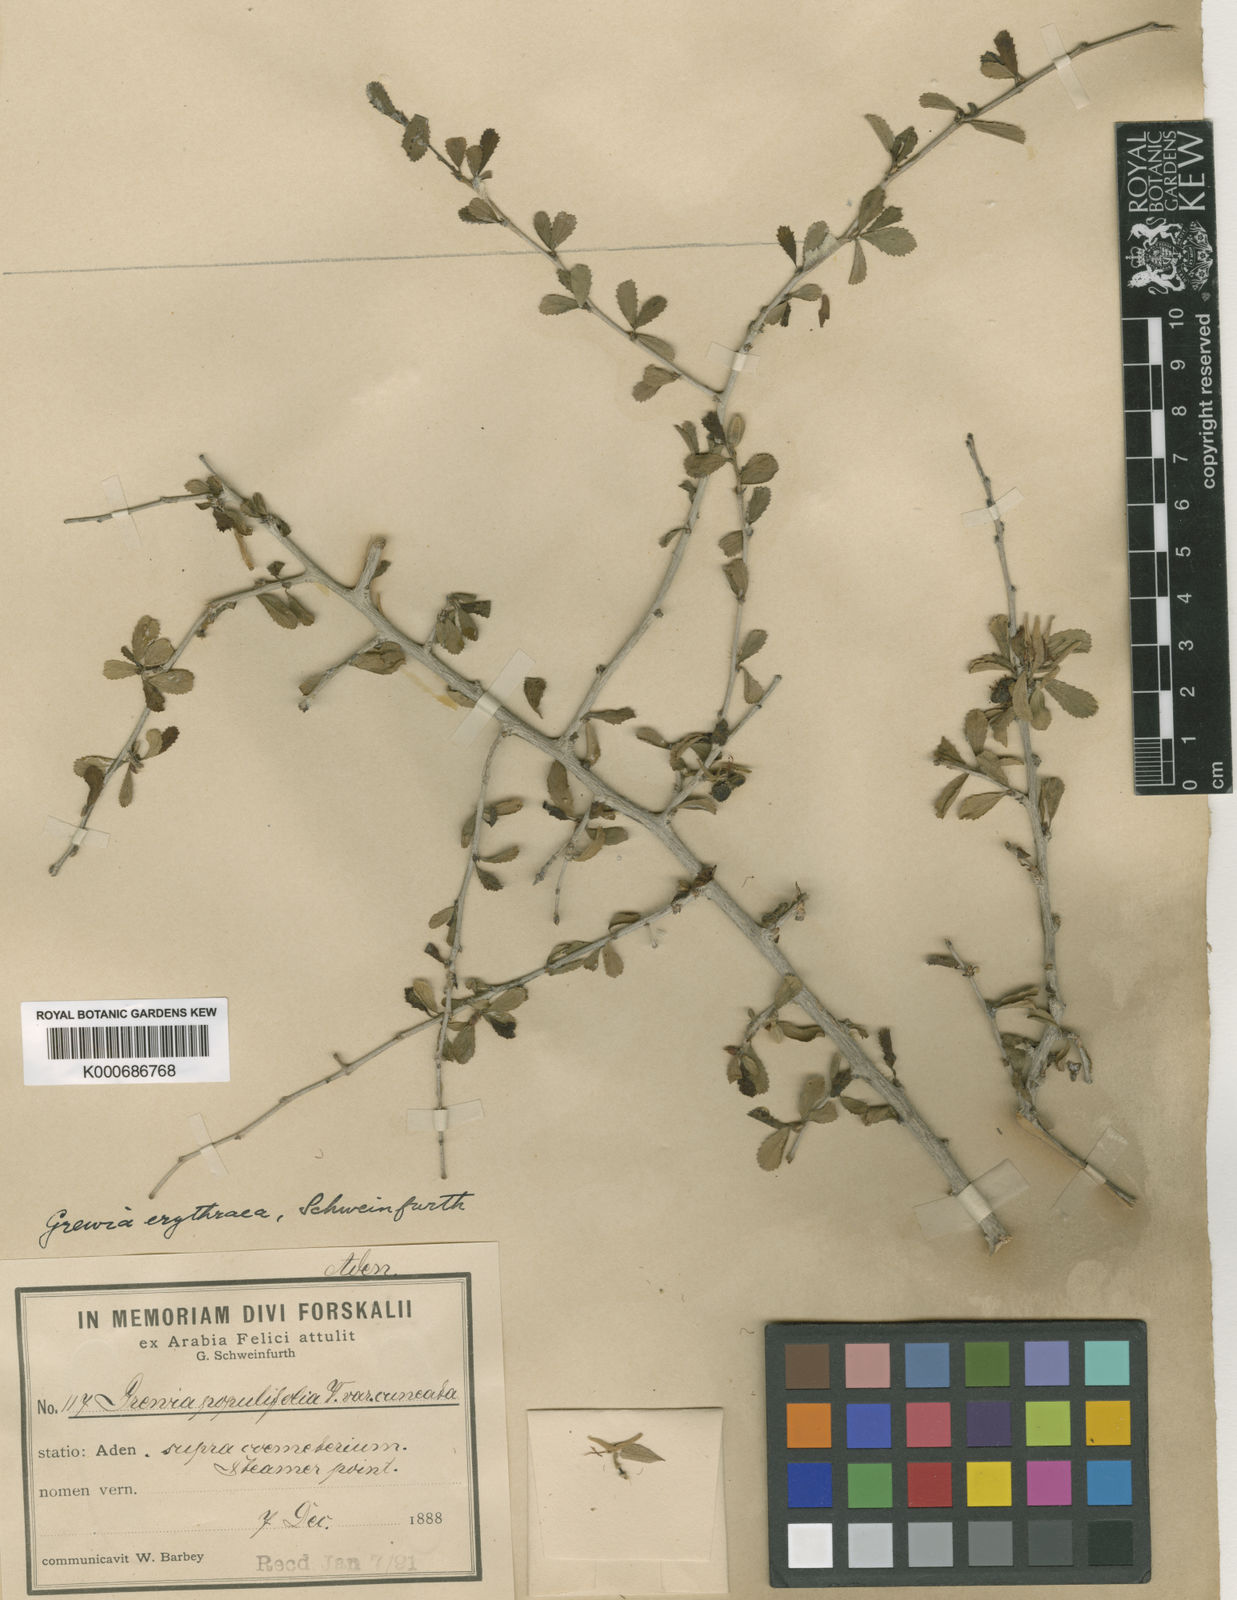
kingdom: Plantae
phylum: Tracheophyta
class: Magnoliopsida
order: Malvales
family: Malvaceae
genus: Grewia
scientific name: Grewia rupestris
